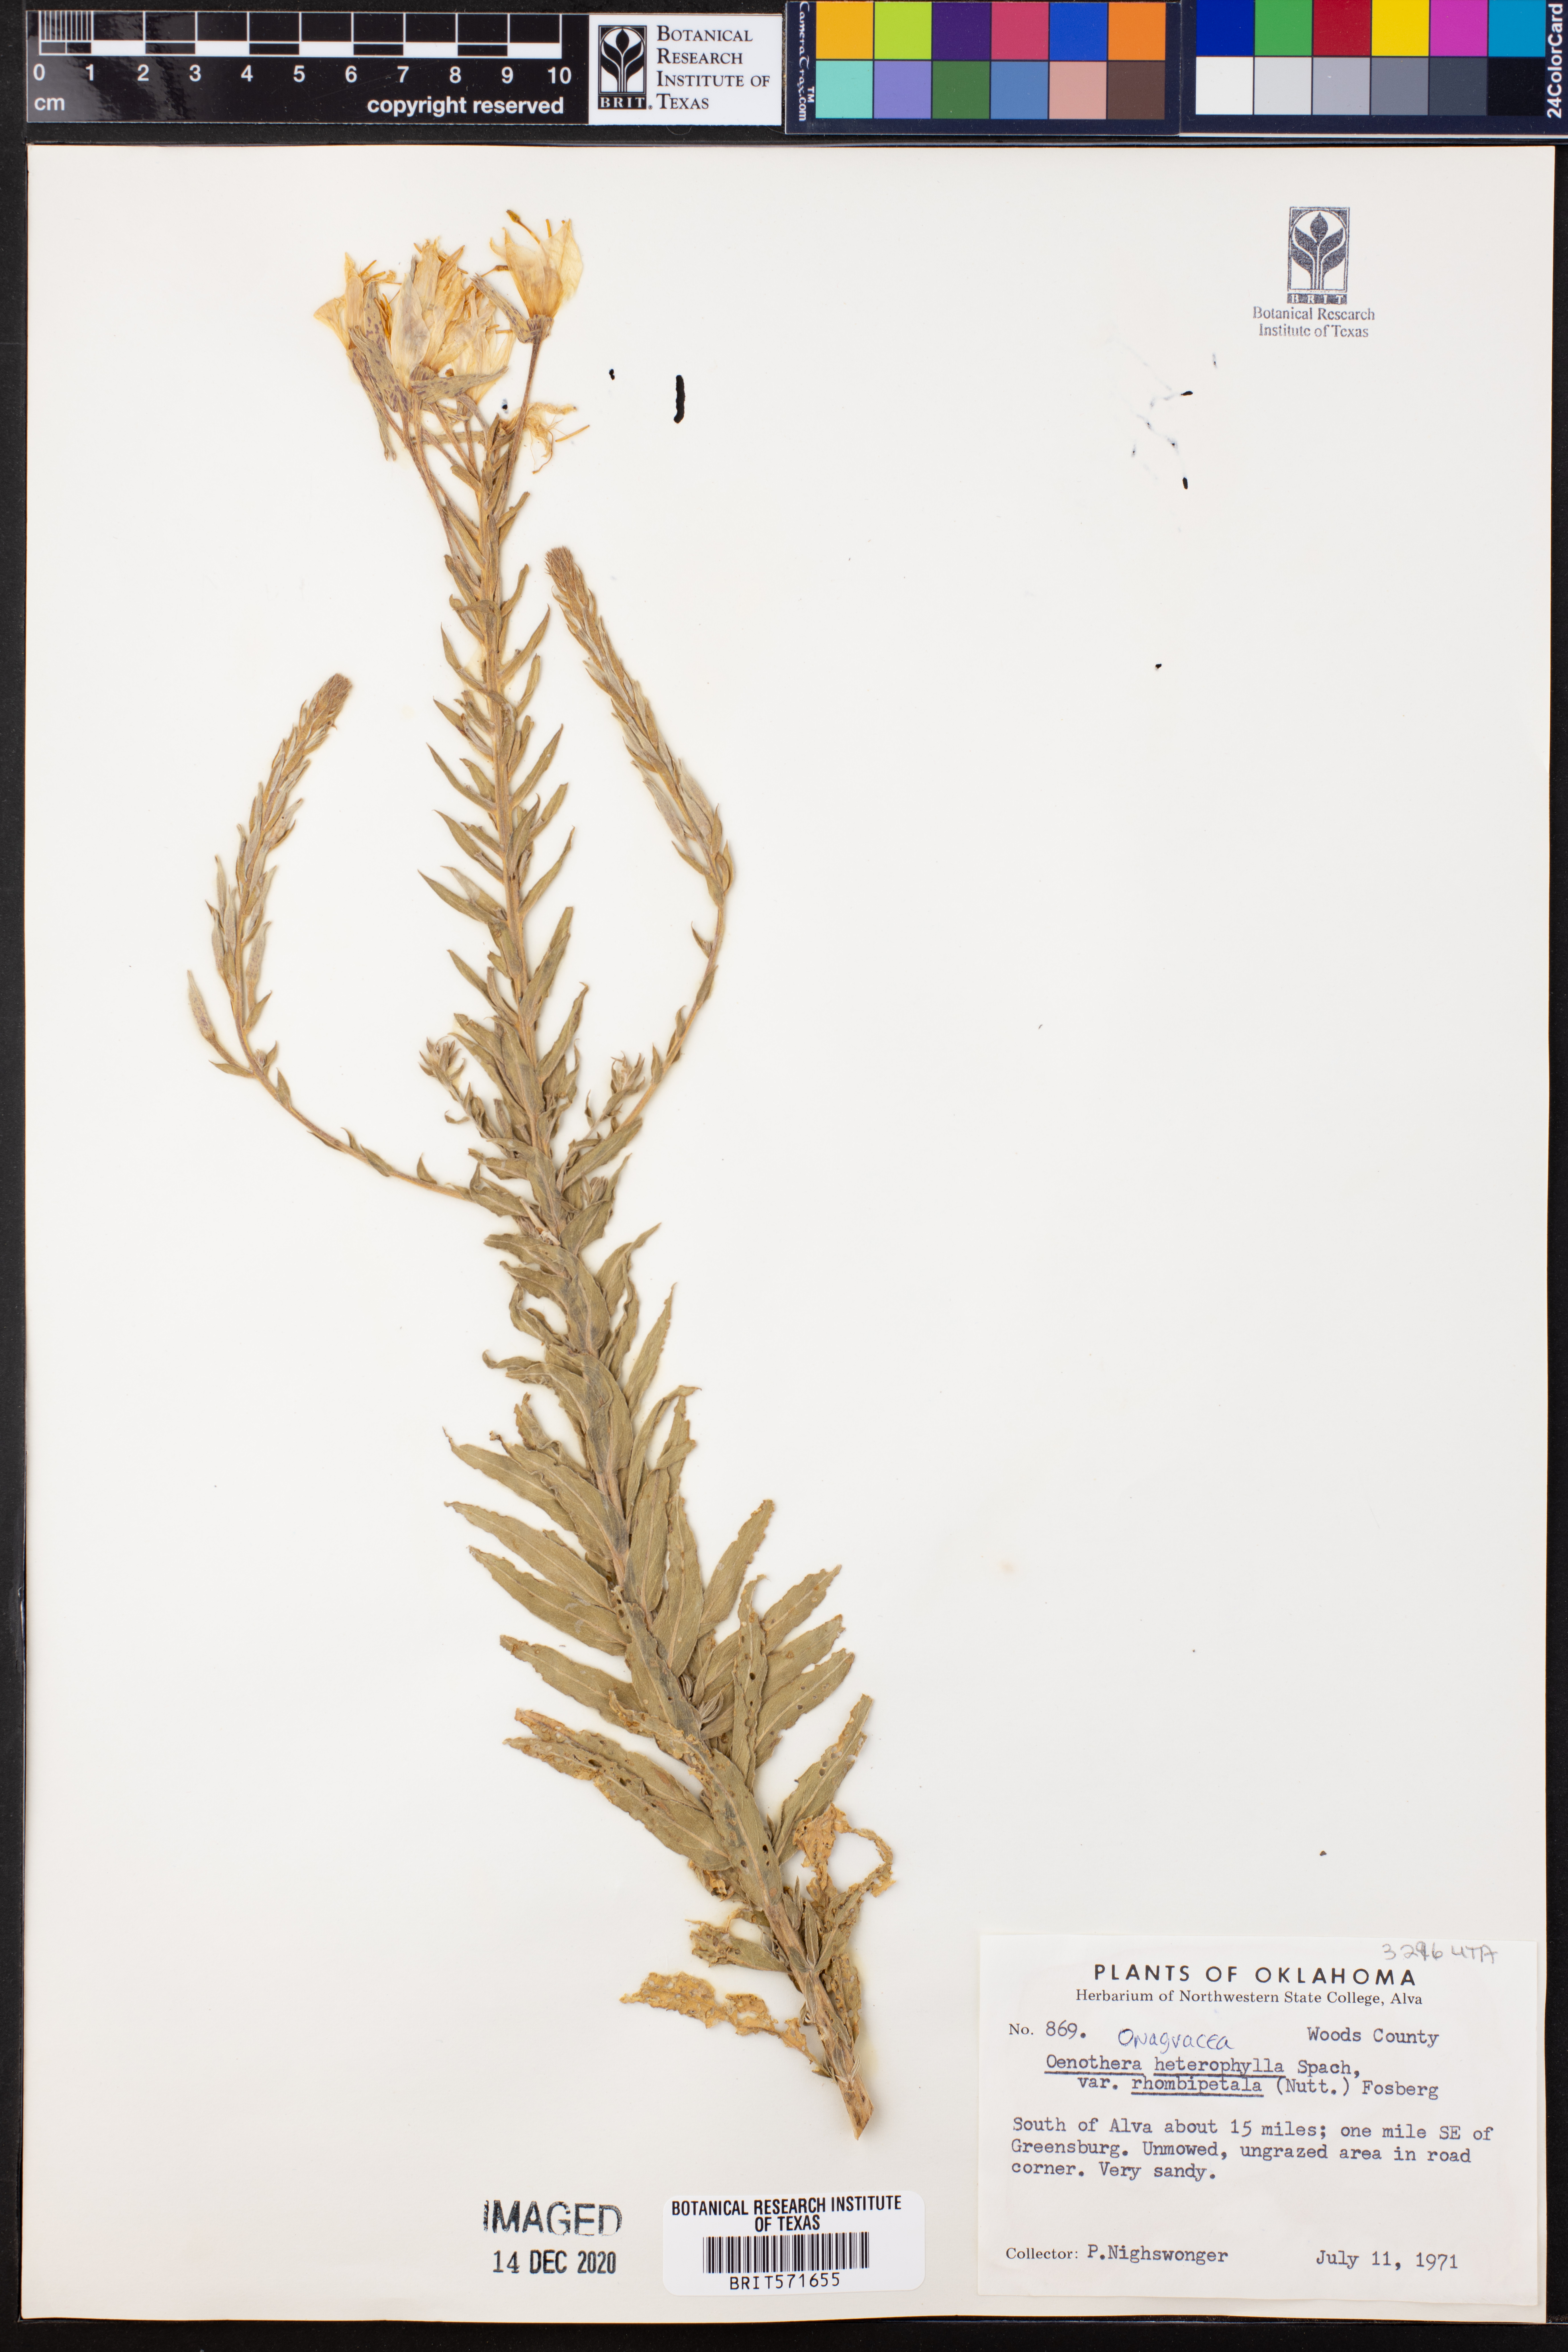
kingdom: Plantae
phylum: Tracheophyta
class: Magnoliopsida
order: Myrtales
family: Onagraceae
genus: Oenothera
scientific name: Oenothera rhombipetala
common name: Four-points evening-primrose
